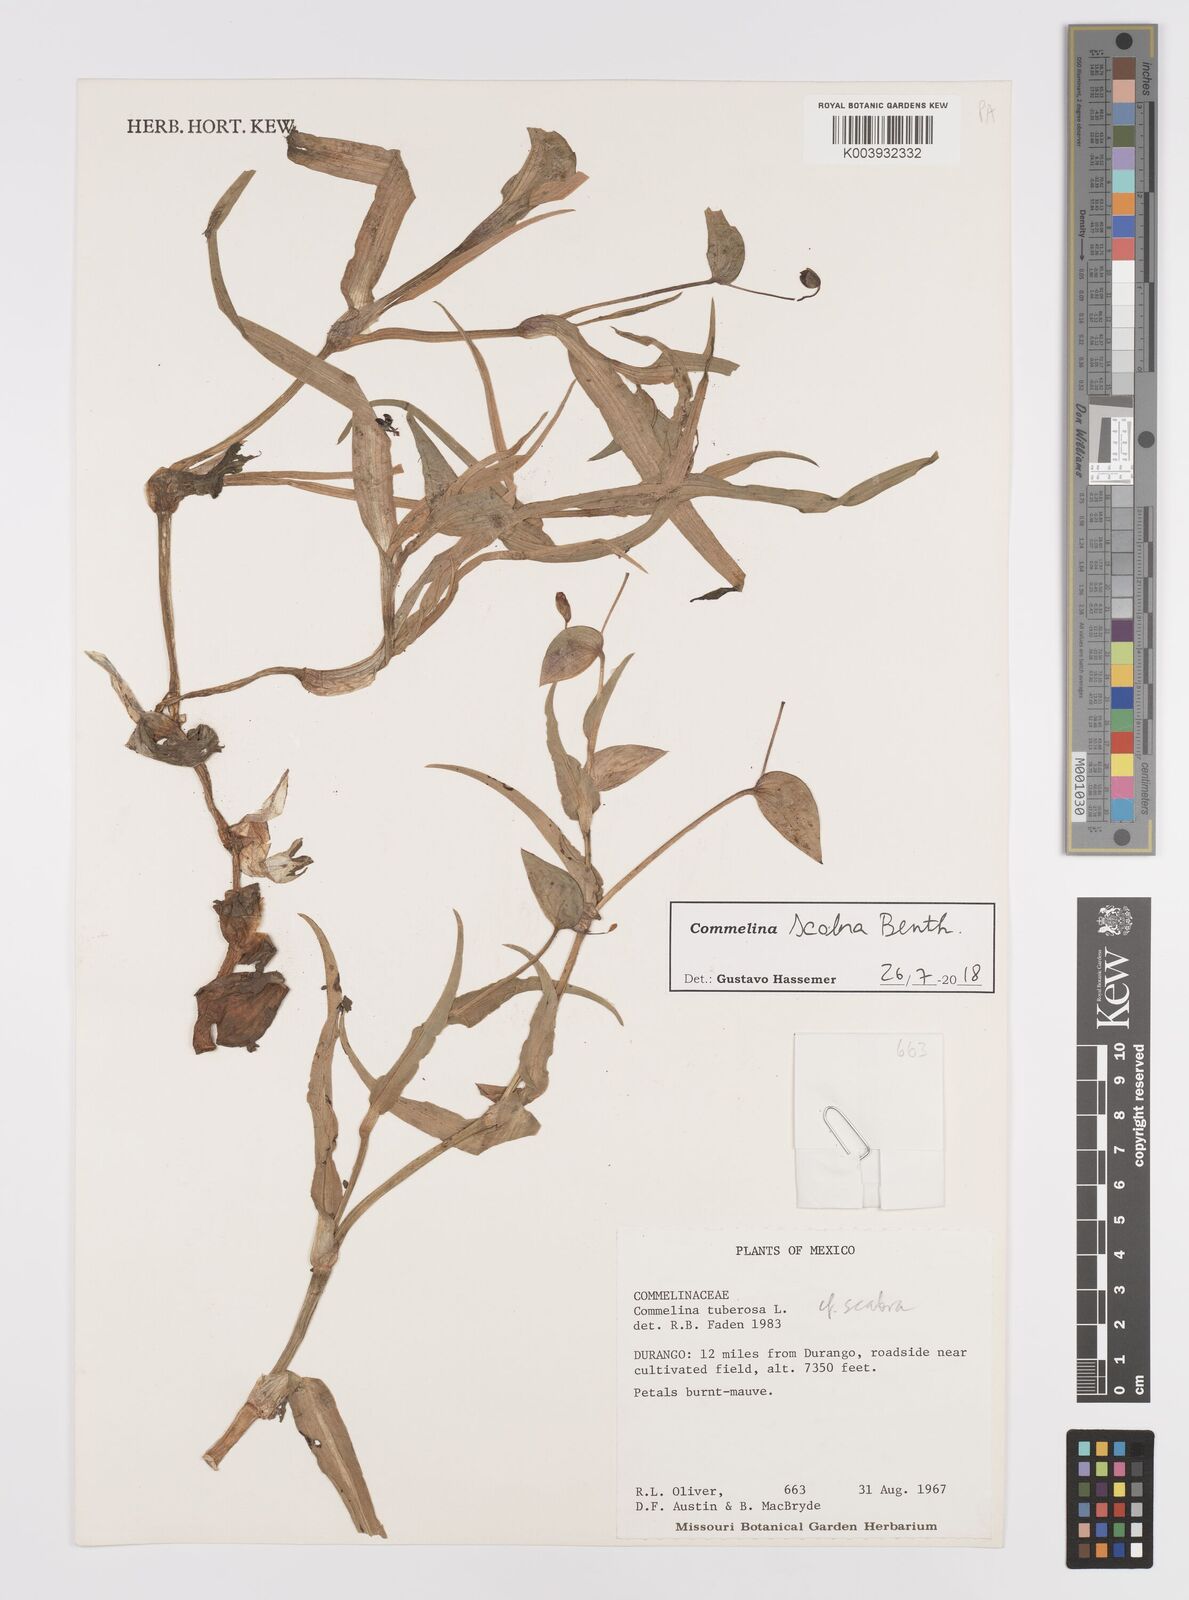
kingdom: Plantae
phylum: Tracheophyta
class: Liliopsida
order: Commelinales
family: Commelinaceae
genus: Commelina
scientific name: Commelina scabra
